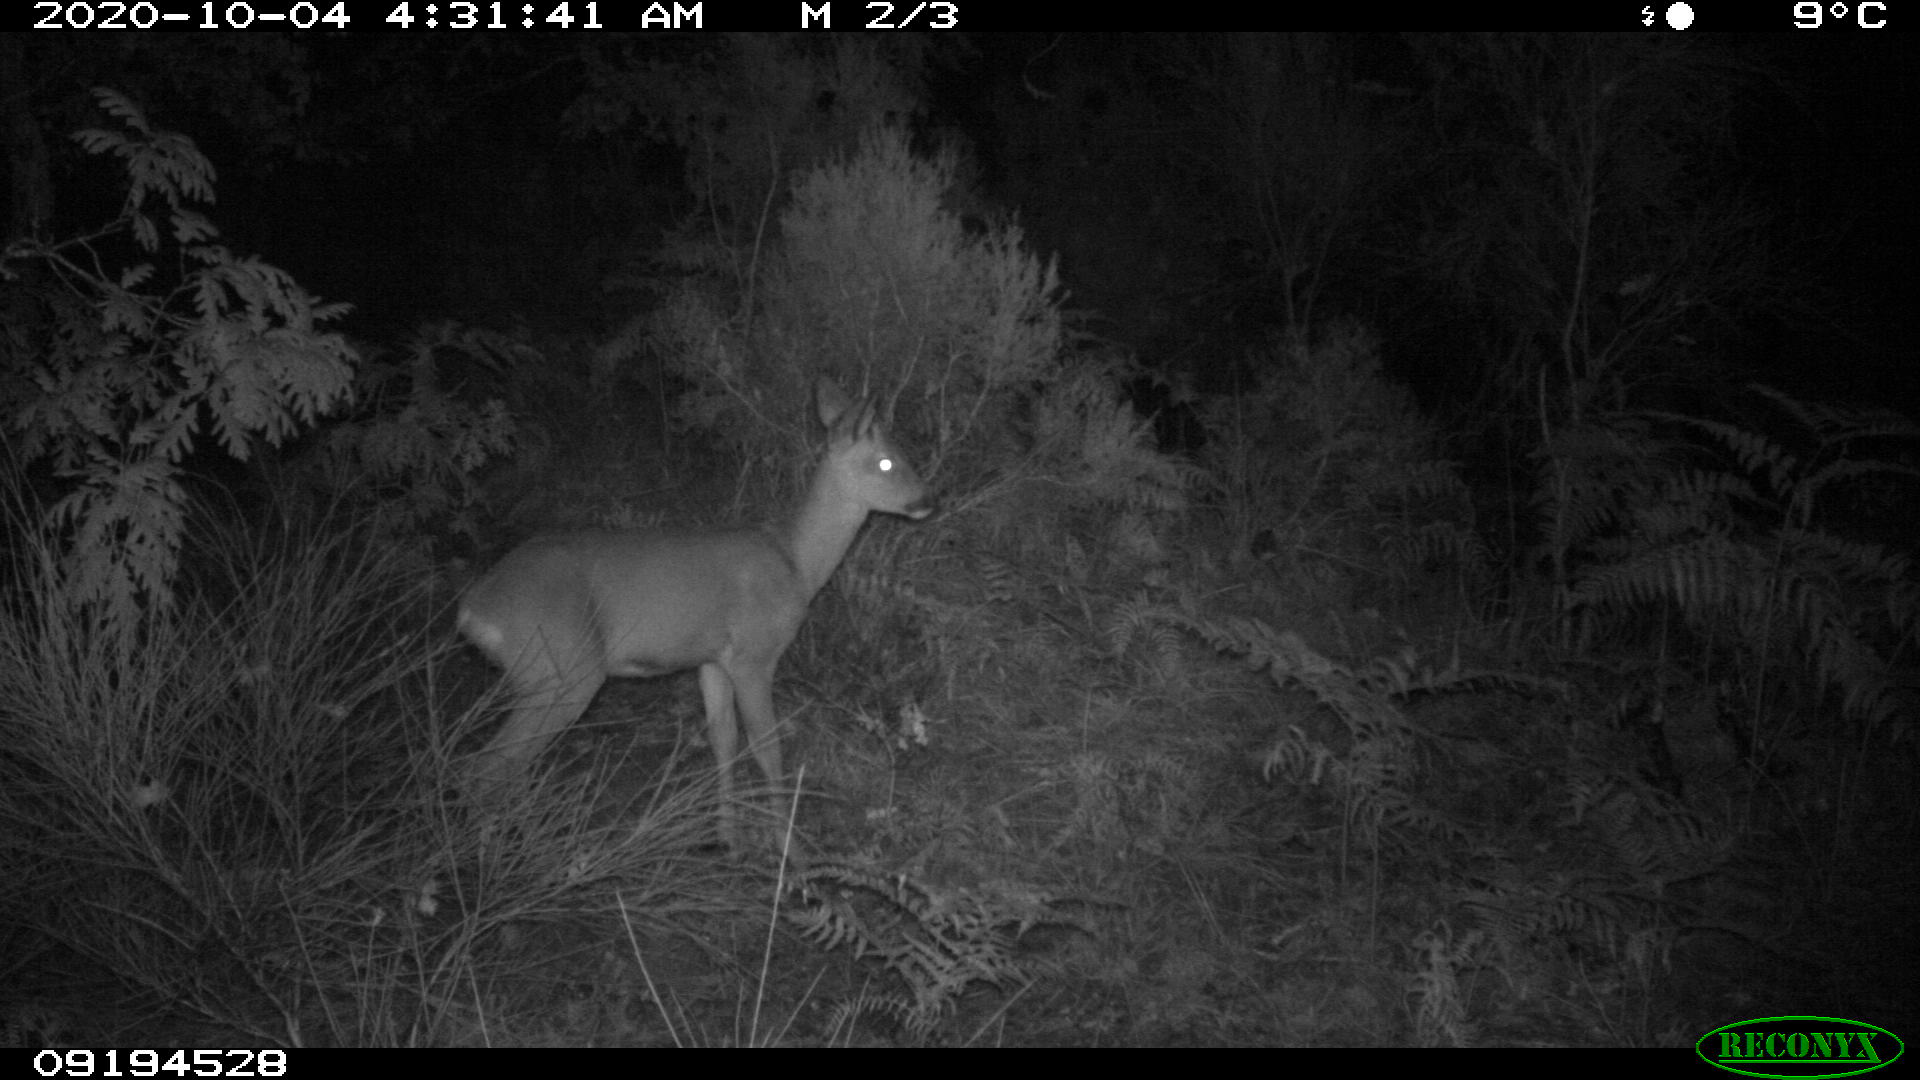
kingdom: Animalia
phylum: Chordata
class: Mammalia
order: Artiodactyla
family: Cervidae
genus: Capreolus
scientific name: Capreolus capreolus
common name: Western roe deer
